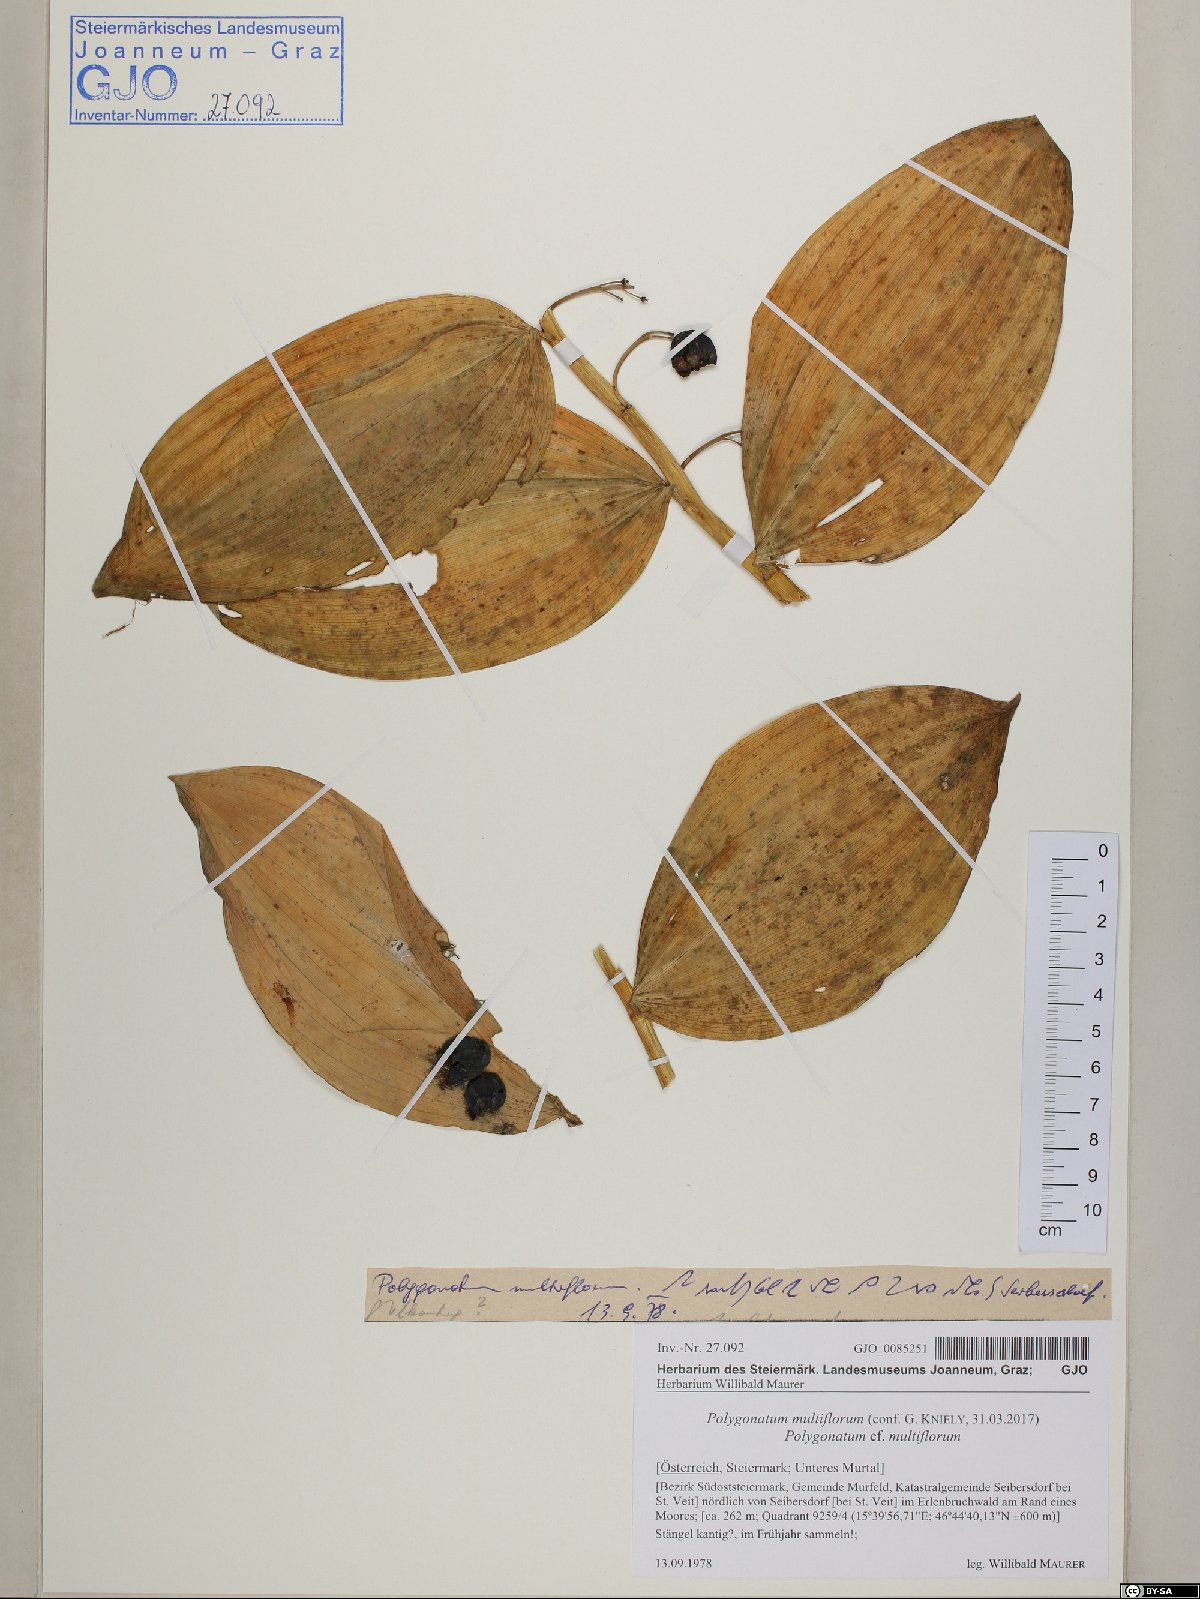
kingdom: Plantae
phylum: Tracheophyta
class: Liliopsida
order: Asparagales
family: Asparagaceae
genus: Polygonatum
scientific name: Polygonatum multiflorum
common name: Solomon's-seal
